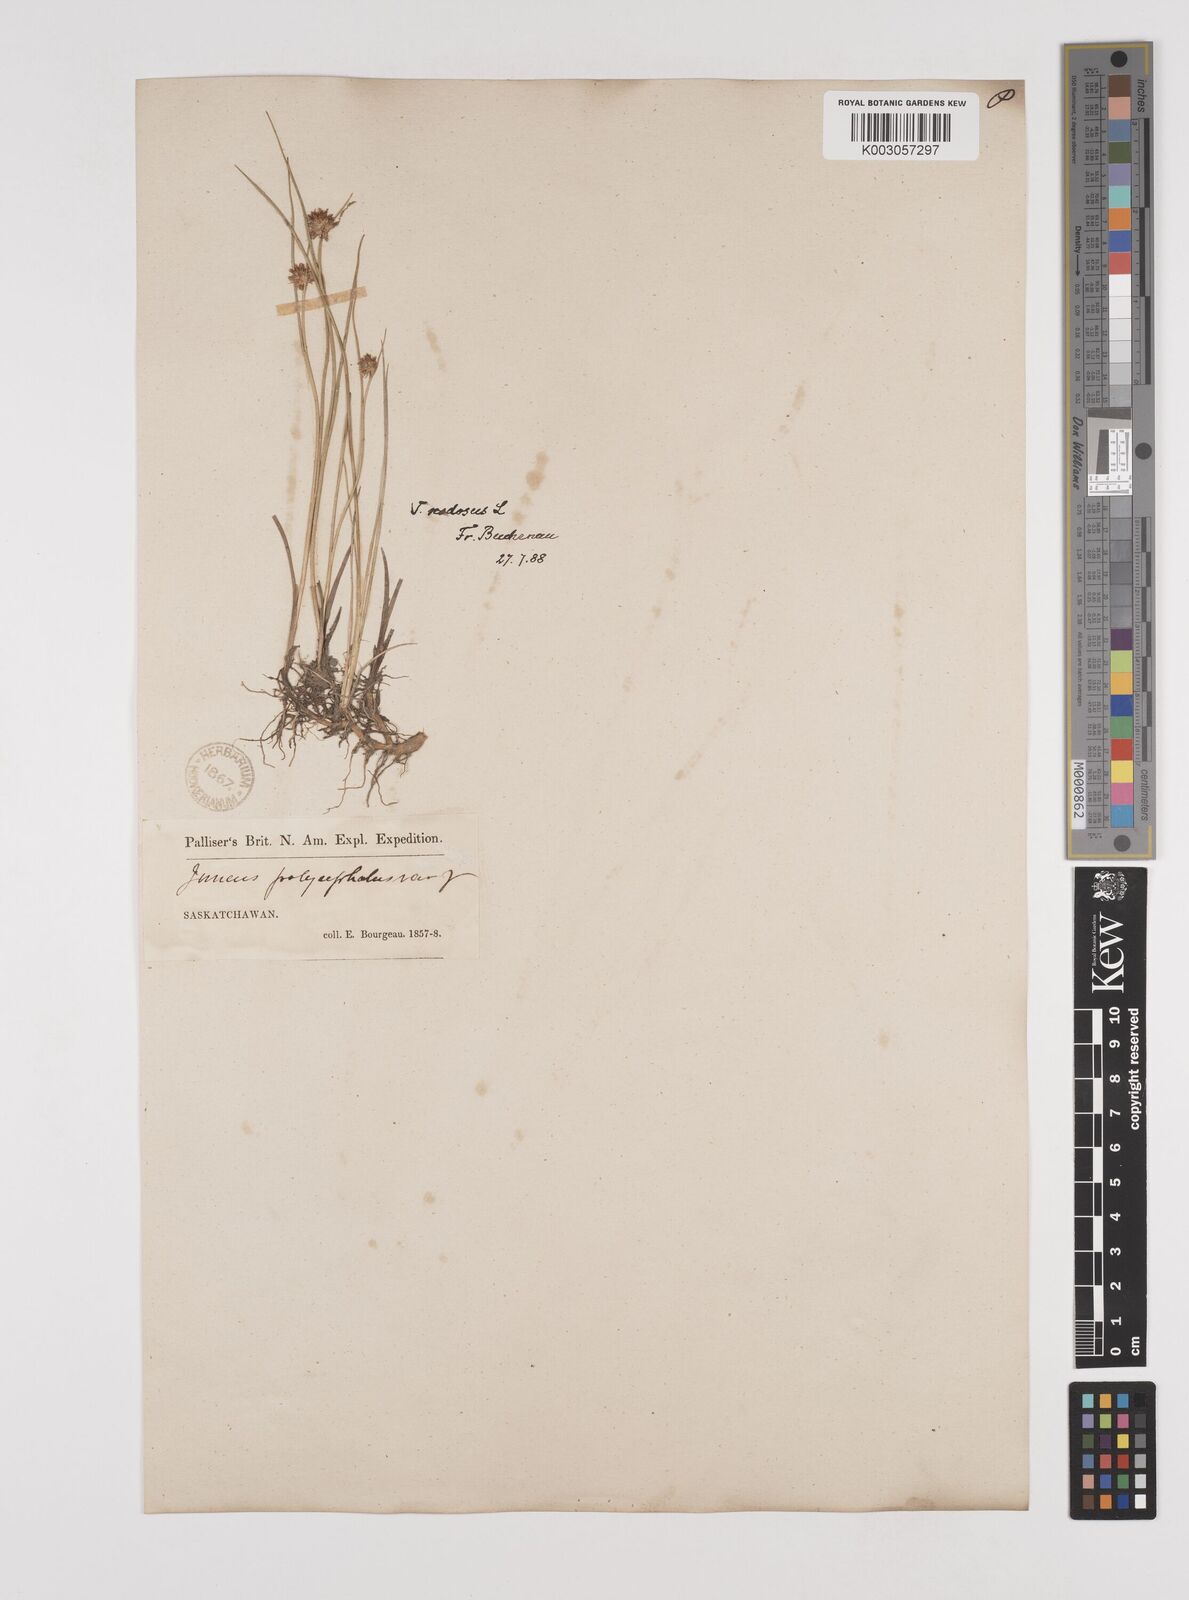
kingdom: Plantae
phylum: Tracheophyta
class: Liliopsida
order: Poales
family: Juncaceae
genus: Juncus
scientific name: Juncus nodosus
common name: Knotted rush
